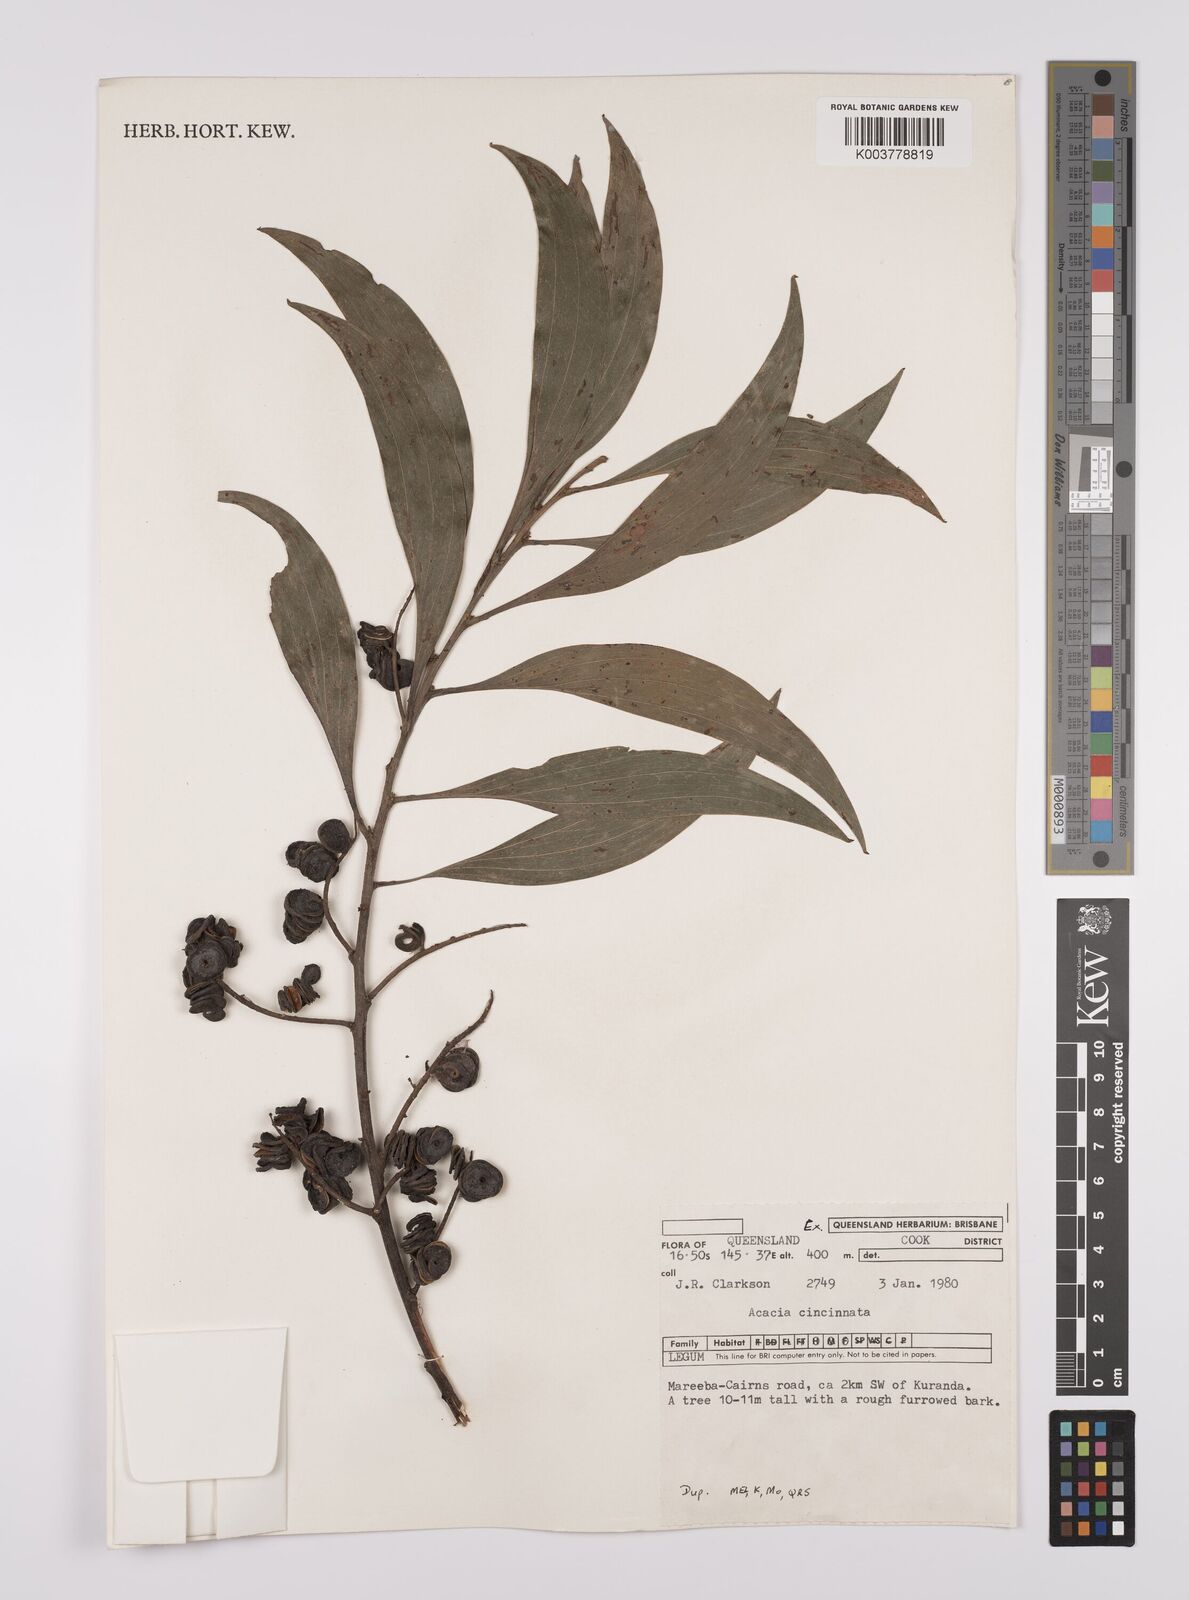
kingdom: Plantae
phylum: Tracheophyta
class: Magnoliopsida
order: Fabales
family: Fabaceae
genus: Acacia
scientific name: Acacia cincinnata
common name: Daintree wattle
